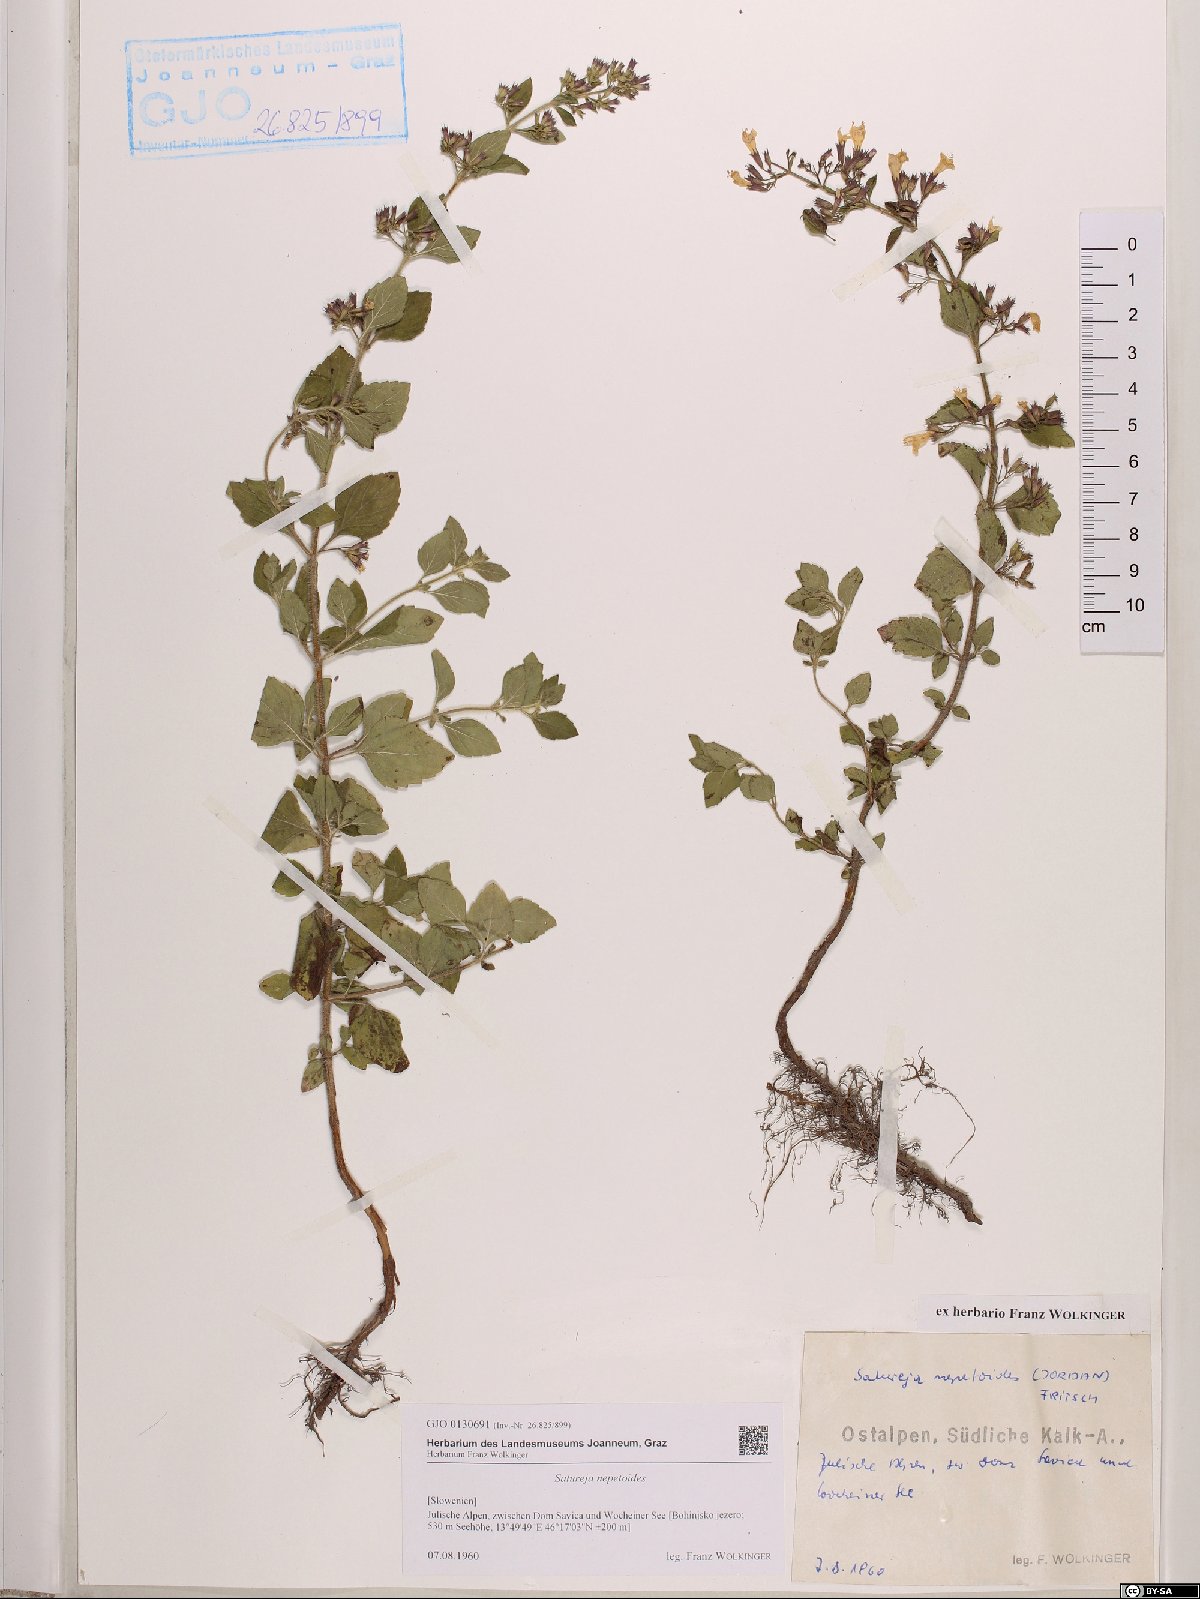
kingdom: Plantae
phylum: Tracheophyta
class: Magnoliopsida
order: Lamiales
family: Lamiaceae
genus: Clinopodium
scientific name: Clinopodium nepeta
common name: Lesser calamint
